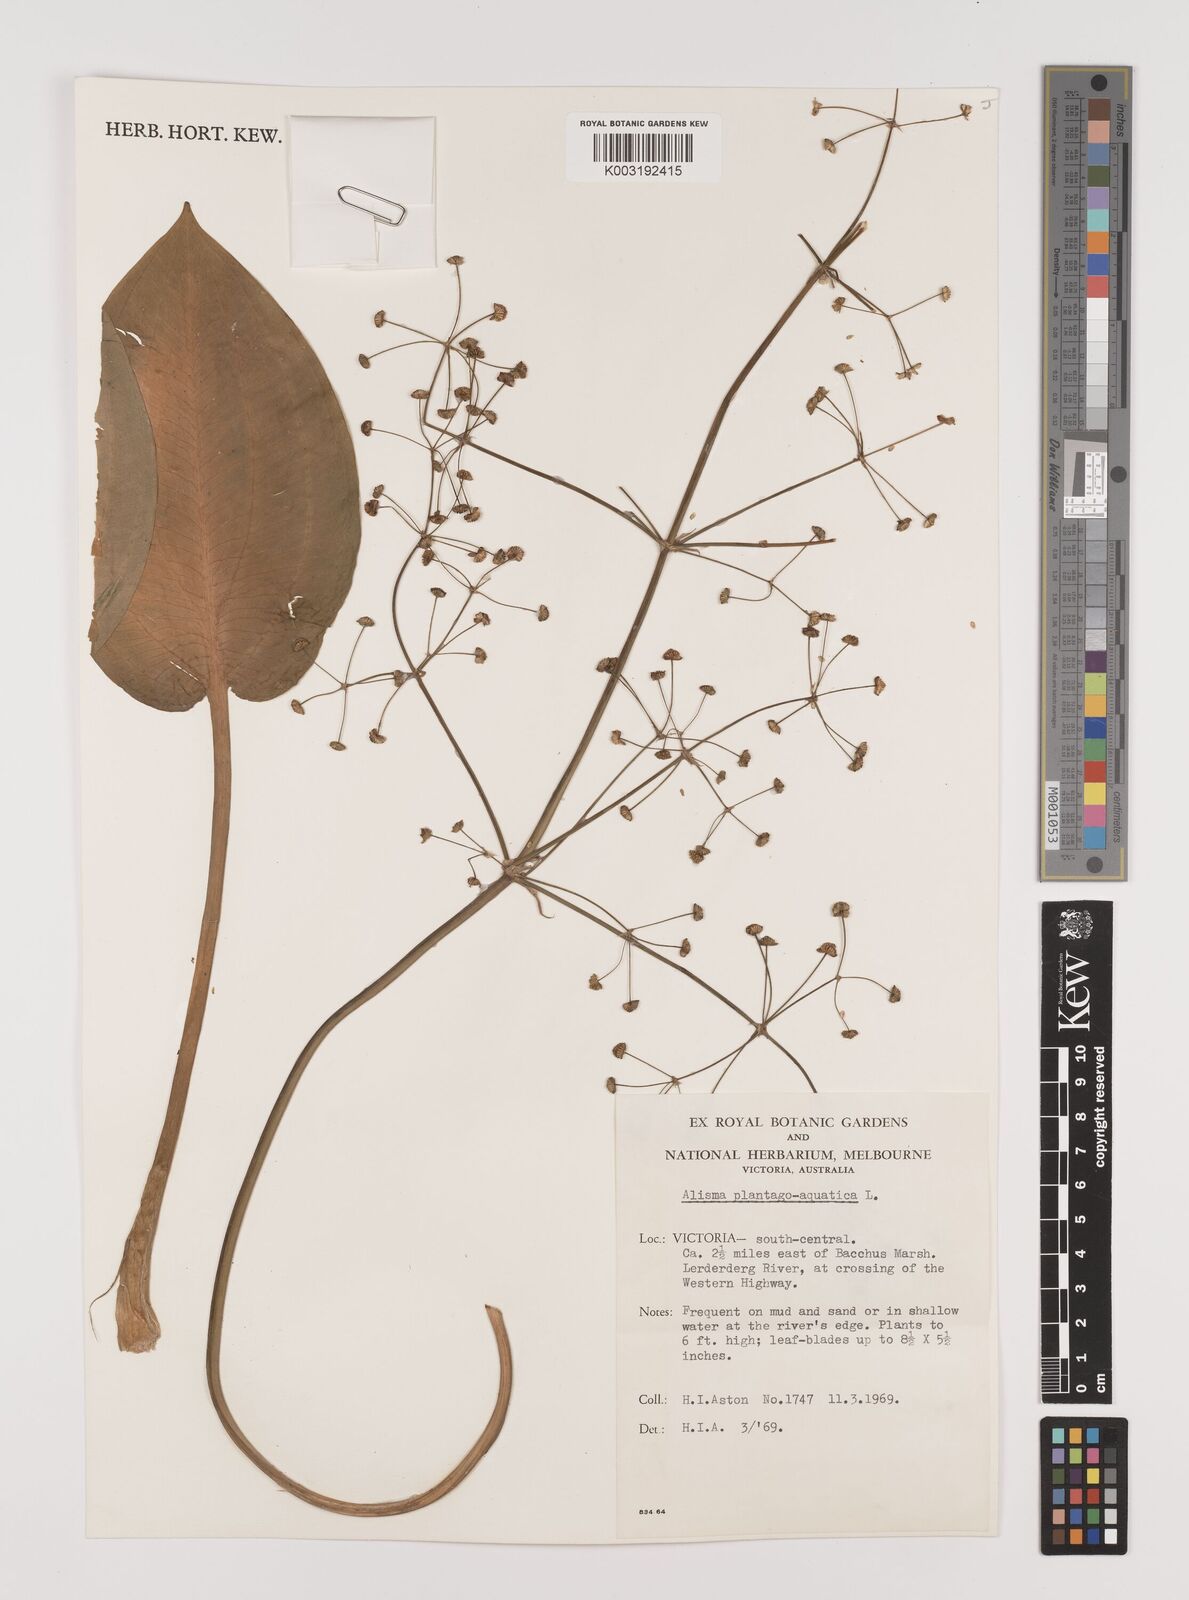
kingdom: Plantae
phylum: Tracheophyta
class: Liliopsida
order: Alismatales
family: Alismataceae
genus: Alisma
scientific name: Alisma plantago-aquatica
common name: Water-plantain
